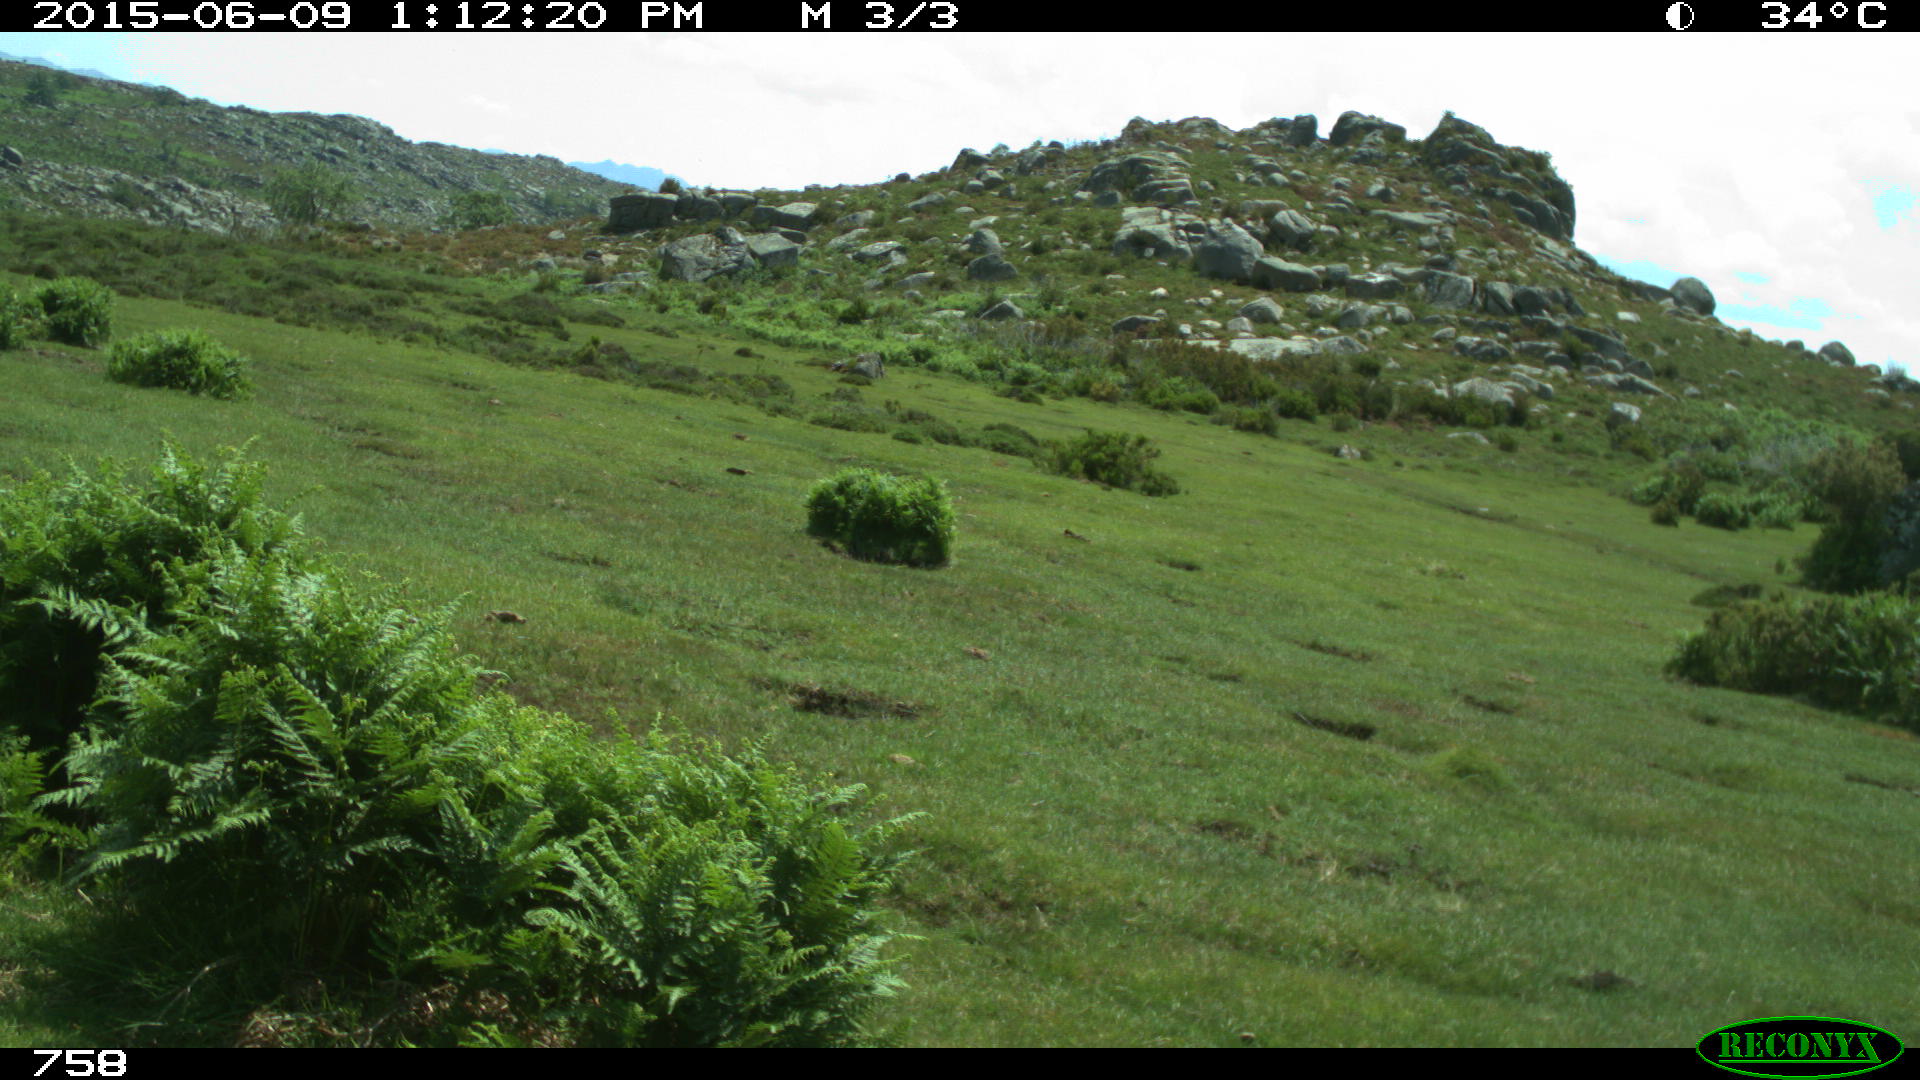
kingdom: Animalia
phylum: Chordata
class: Mammalia
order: Artiodactyla
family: Bovidae
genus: Bos
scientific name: Bos taurus
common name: Domesticated cattle
